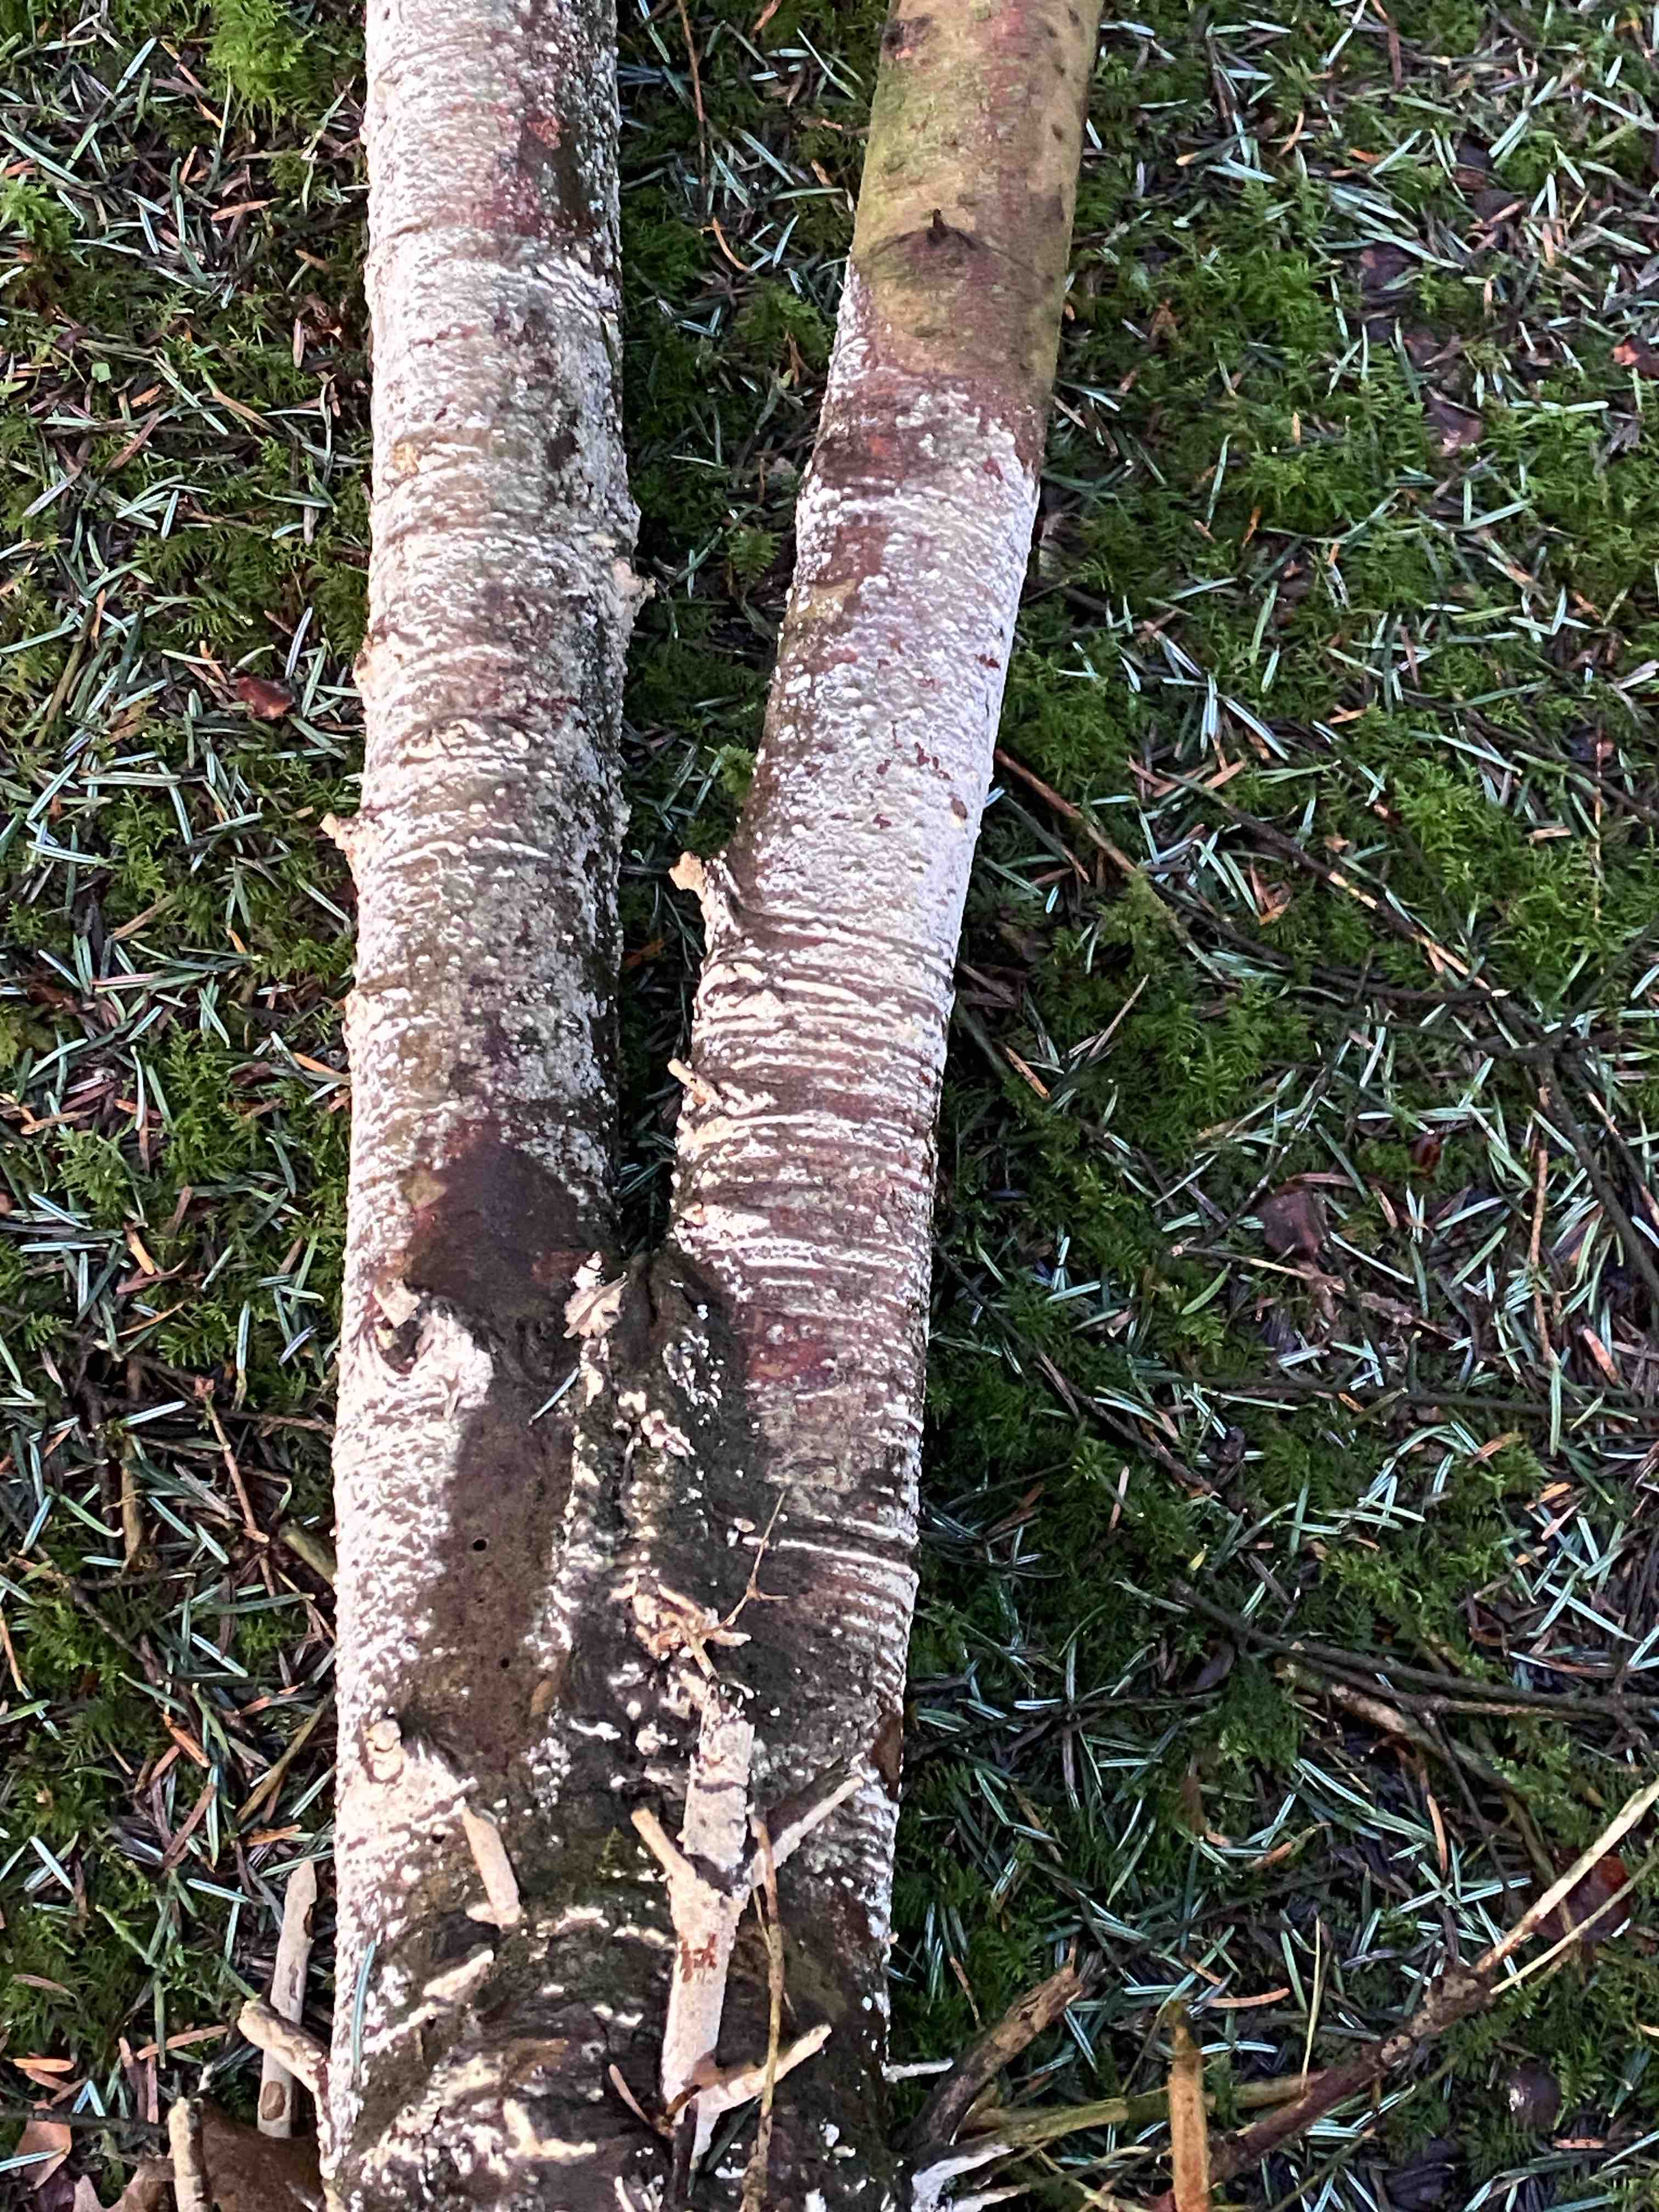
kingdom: Fungi
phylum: Basidiomycota
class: Agaricomycetes
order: Hymenochaetales
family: Schizoporaceae
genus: Xylodon
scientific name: Xylodon
